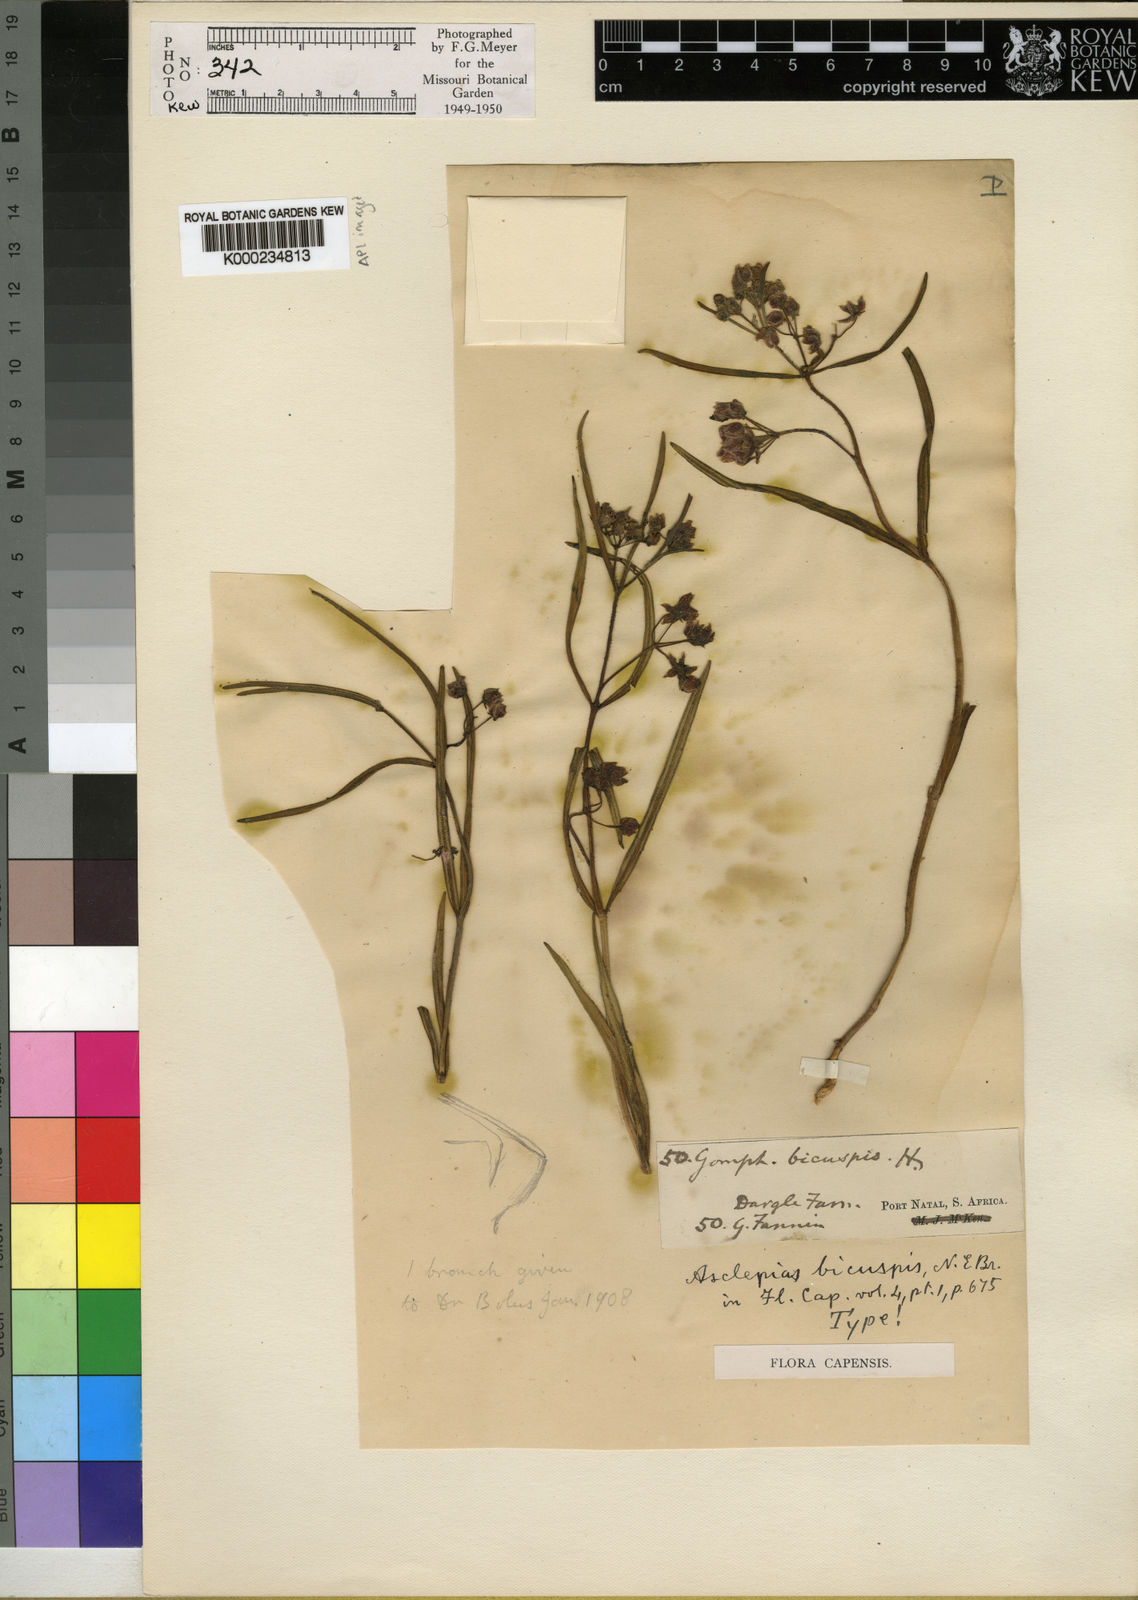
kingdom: Plantae
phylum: Tracheophyta
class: Magnoliopsida
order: Gentianales
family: Apocynaceae
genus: Asclepias
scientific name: Asclepias bicuspis
